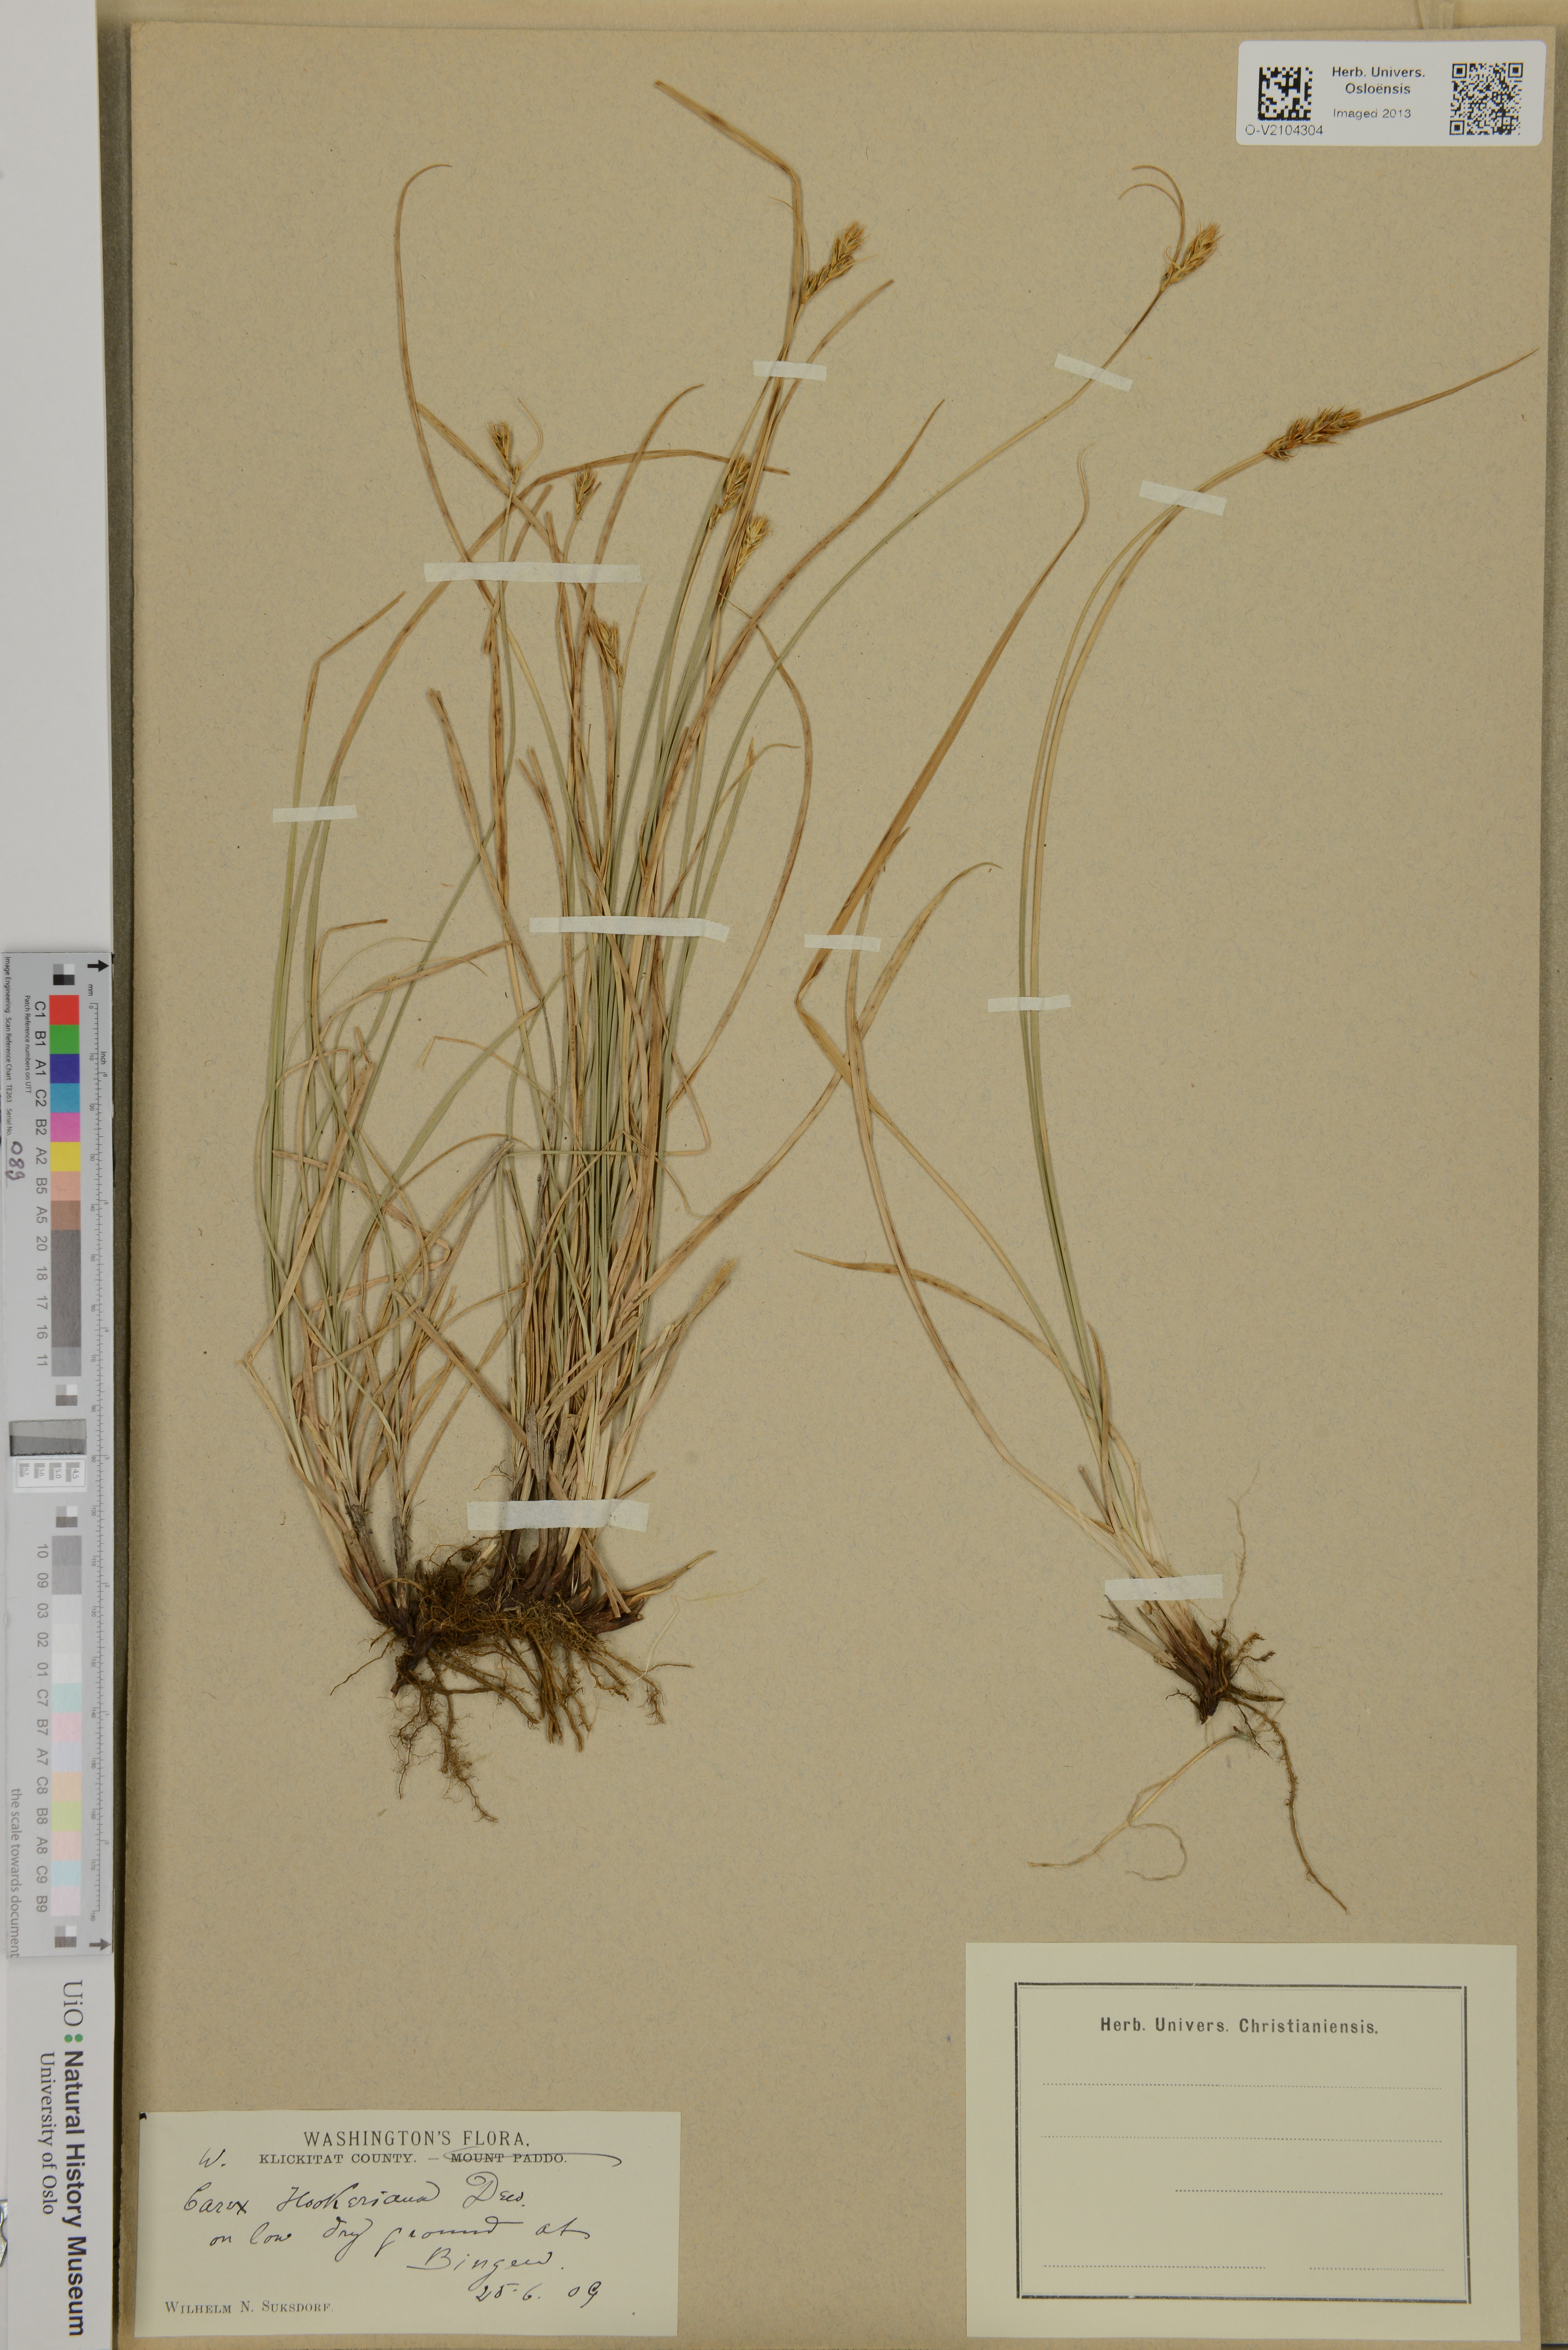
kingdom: Plantae
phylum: Tracheophyta
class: Liliopsida
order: Poales
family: Cyperaceae
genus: Carex
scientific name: Carex hookeriana
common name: Hooker's sedge
